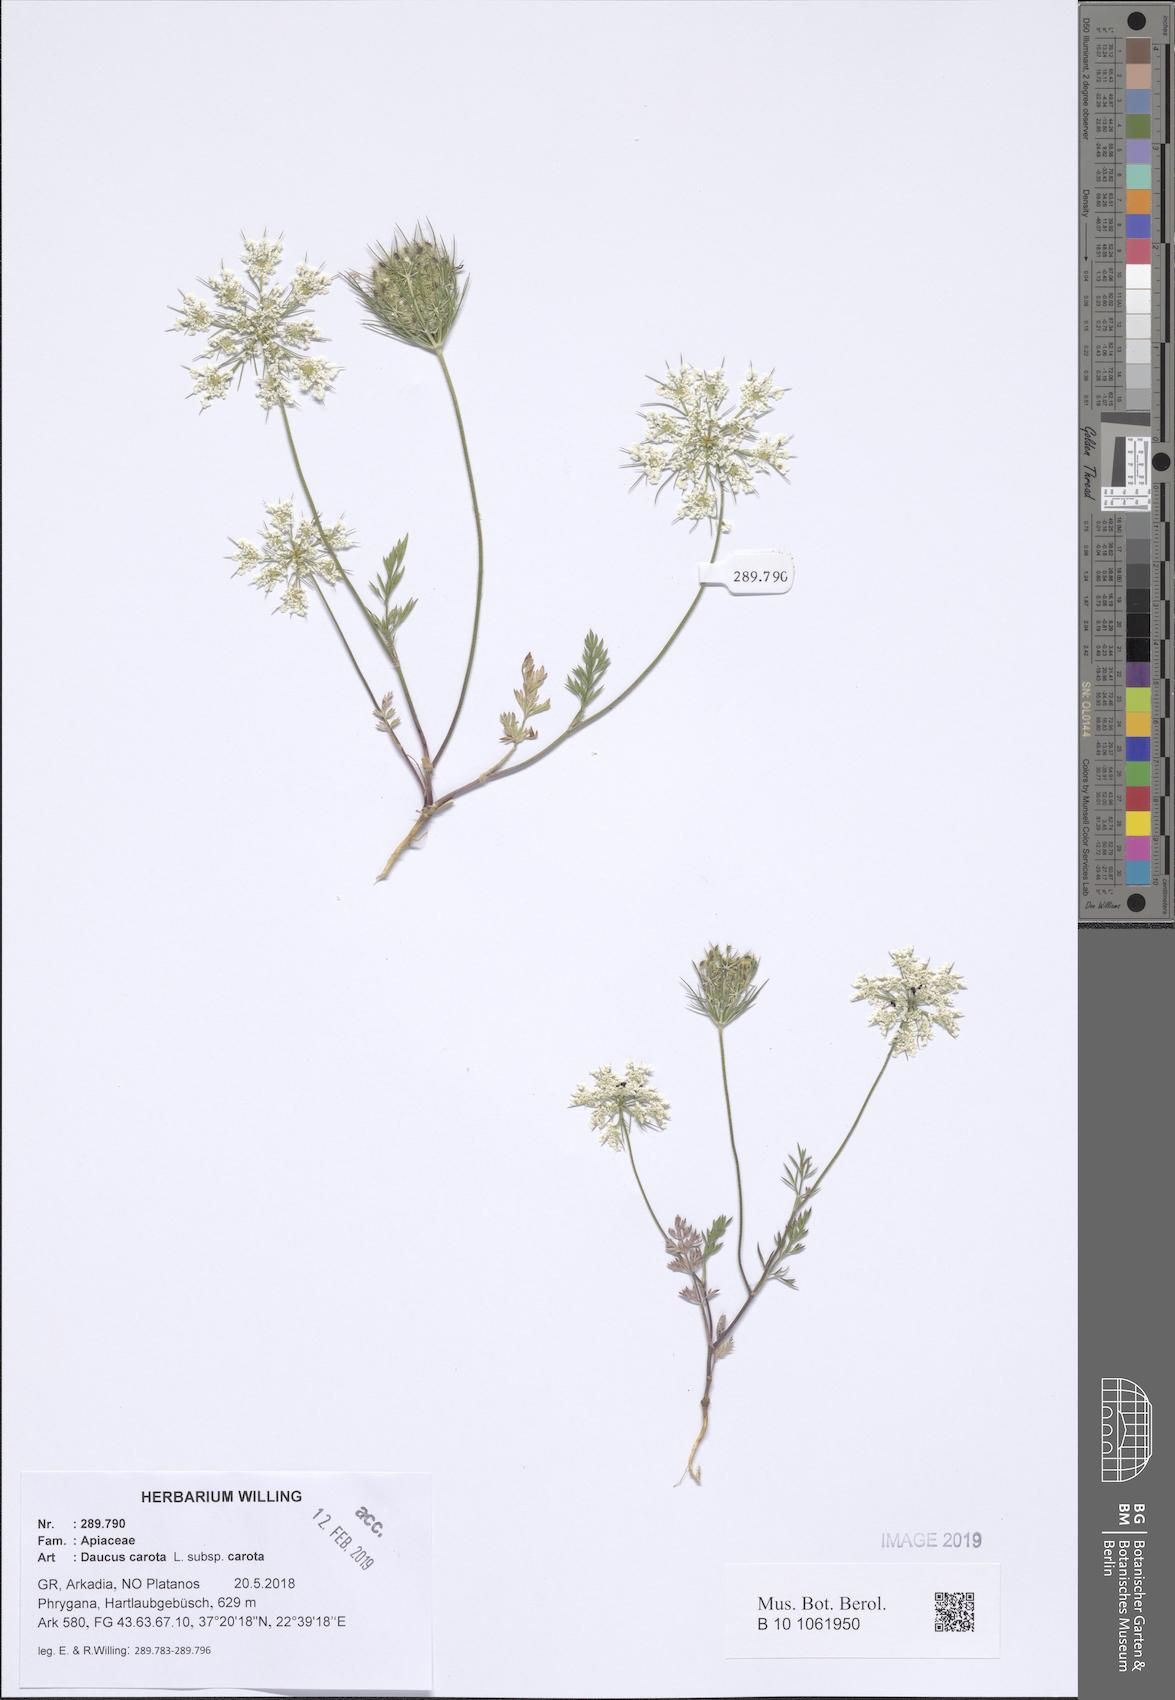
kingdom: Plantae
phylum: Tracheophyta
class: Magnoliopsida
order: Apiales
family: Apiaceae
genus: Daucus
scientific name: Daucus carota
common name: Wild carrot
